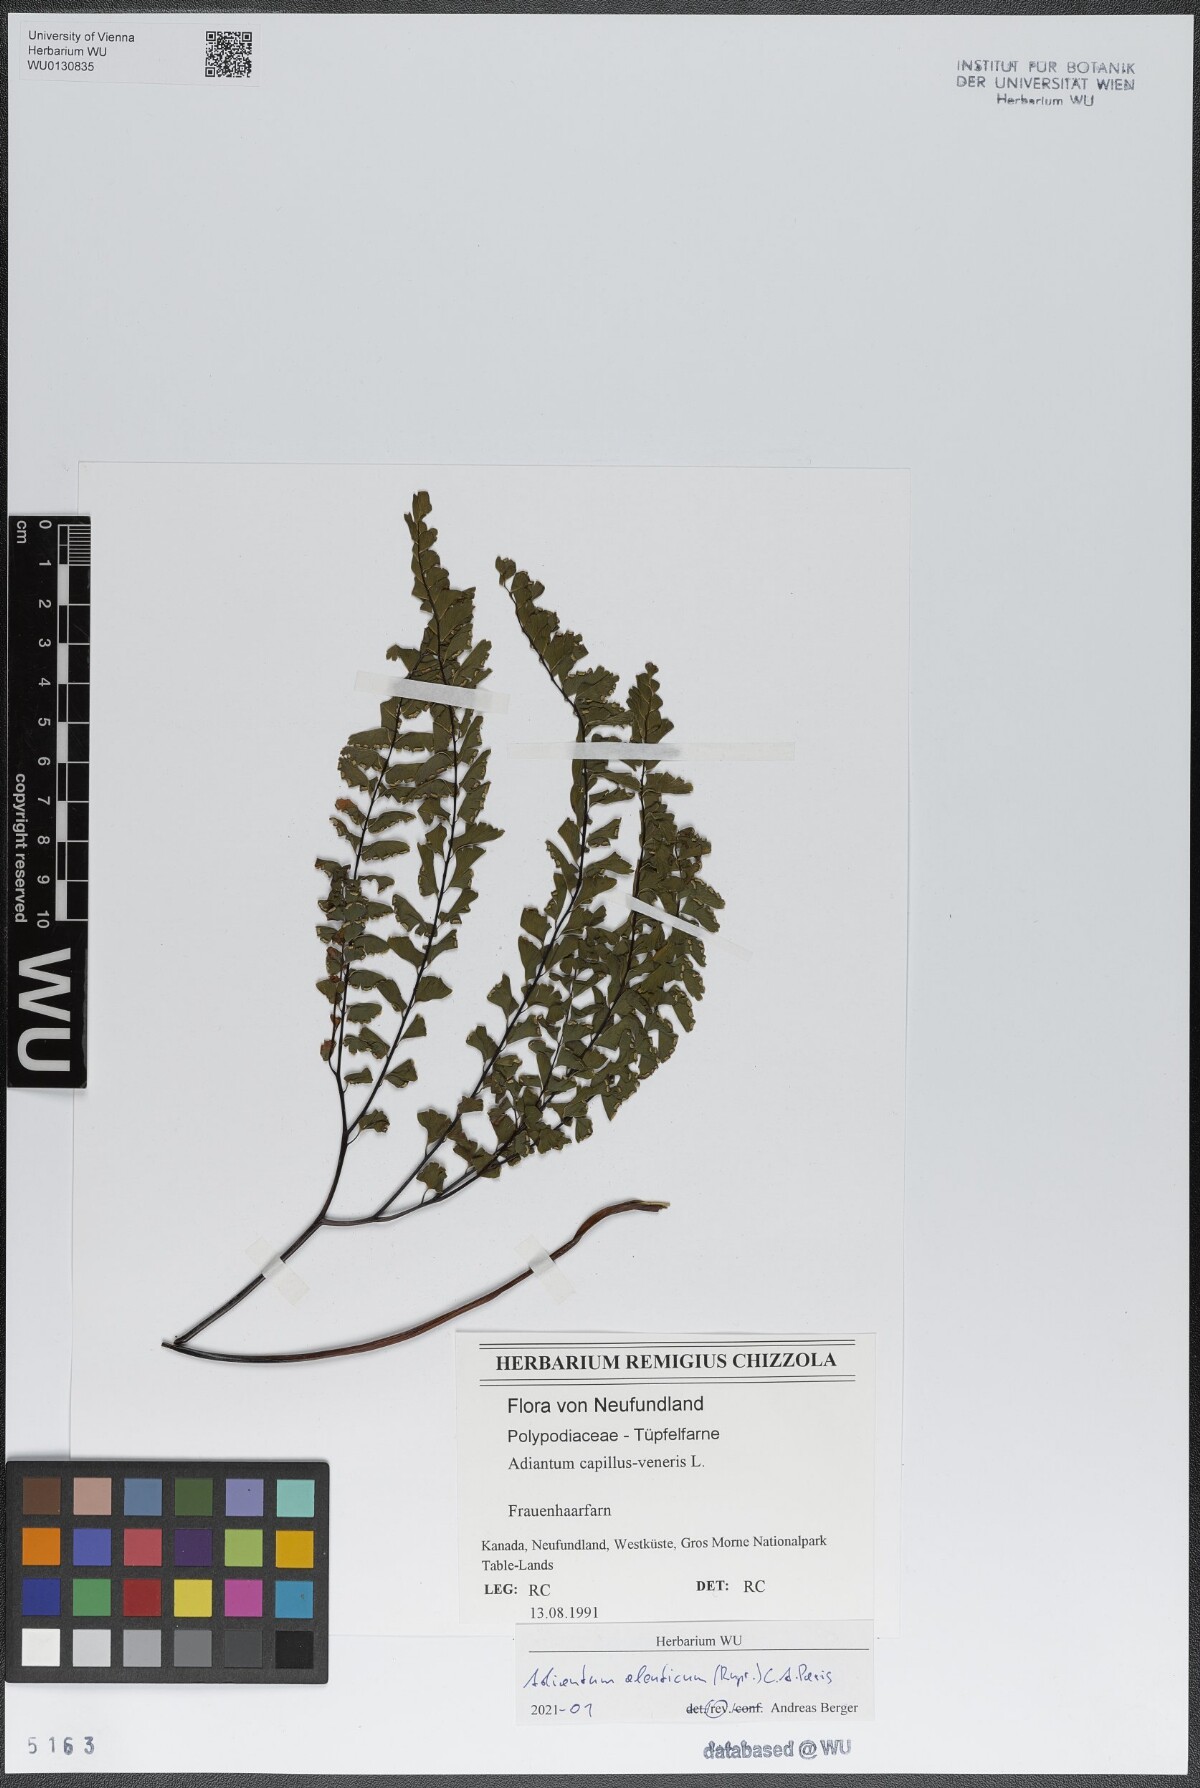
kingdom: Plantae
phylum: Tracheophyta
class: Polypodiopsida
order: Polypodiales
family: Pteridaceae
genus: Adiantum
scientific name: Adiantum aleuticum
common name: Aleutian maidenhair fern
